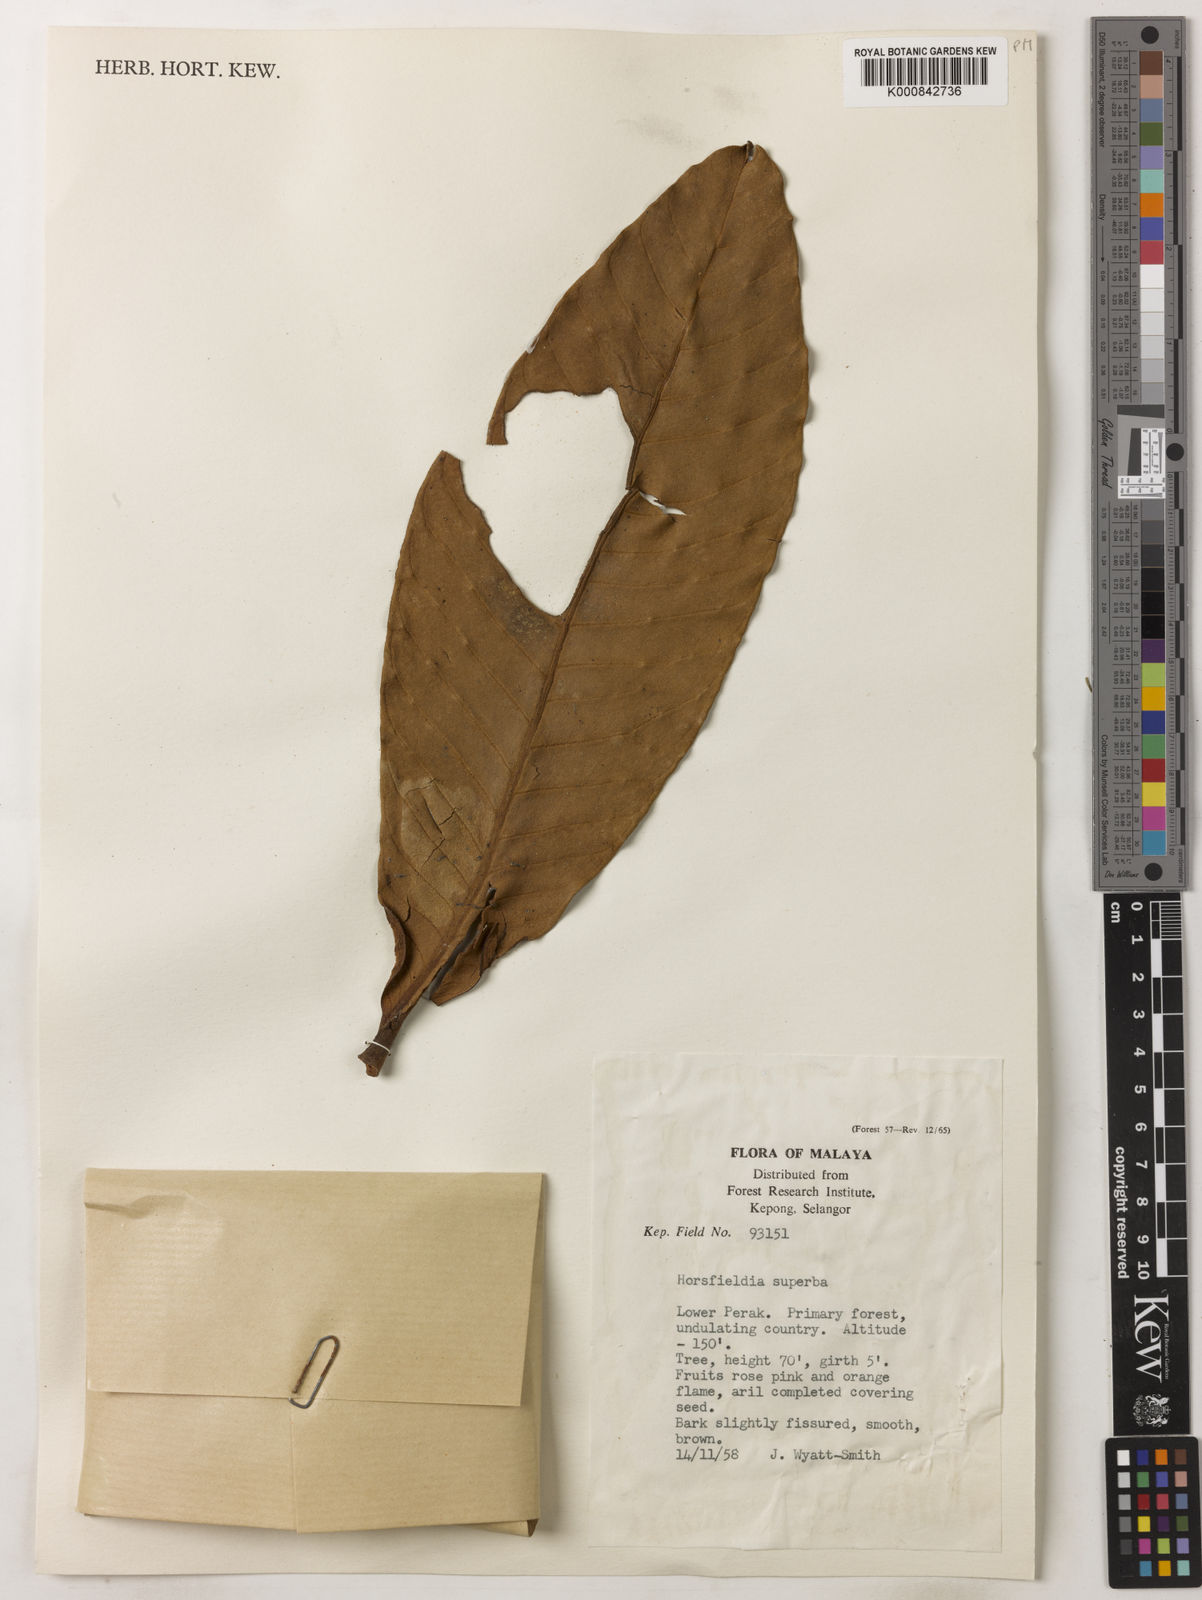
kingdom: Plantae
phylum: Tracheophyta
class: Magnoliopsida
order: Magnoliales
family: Myristicaceae
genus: Horsfieldia
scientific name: Horsfieldia superba
